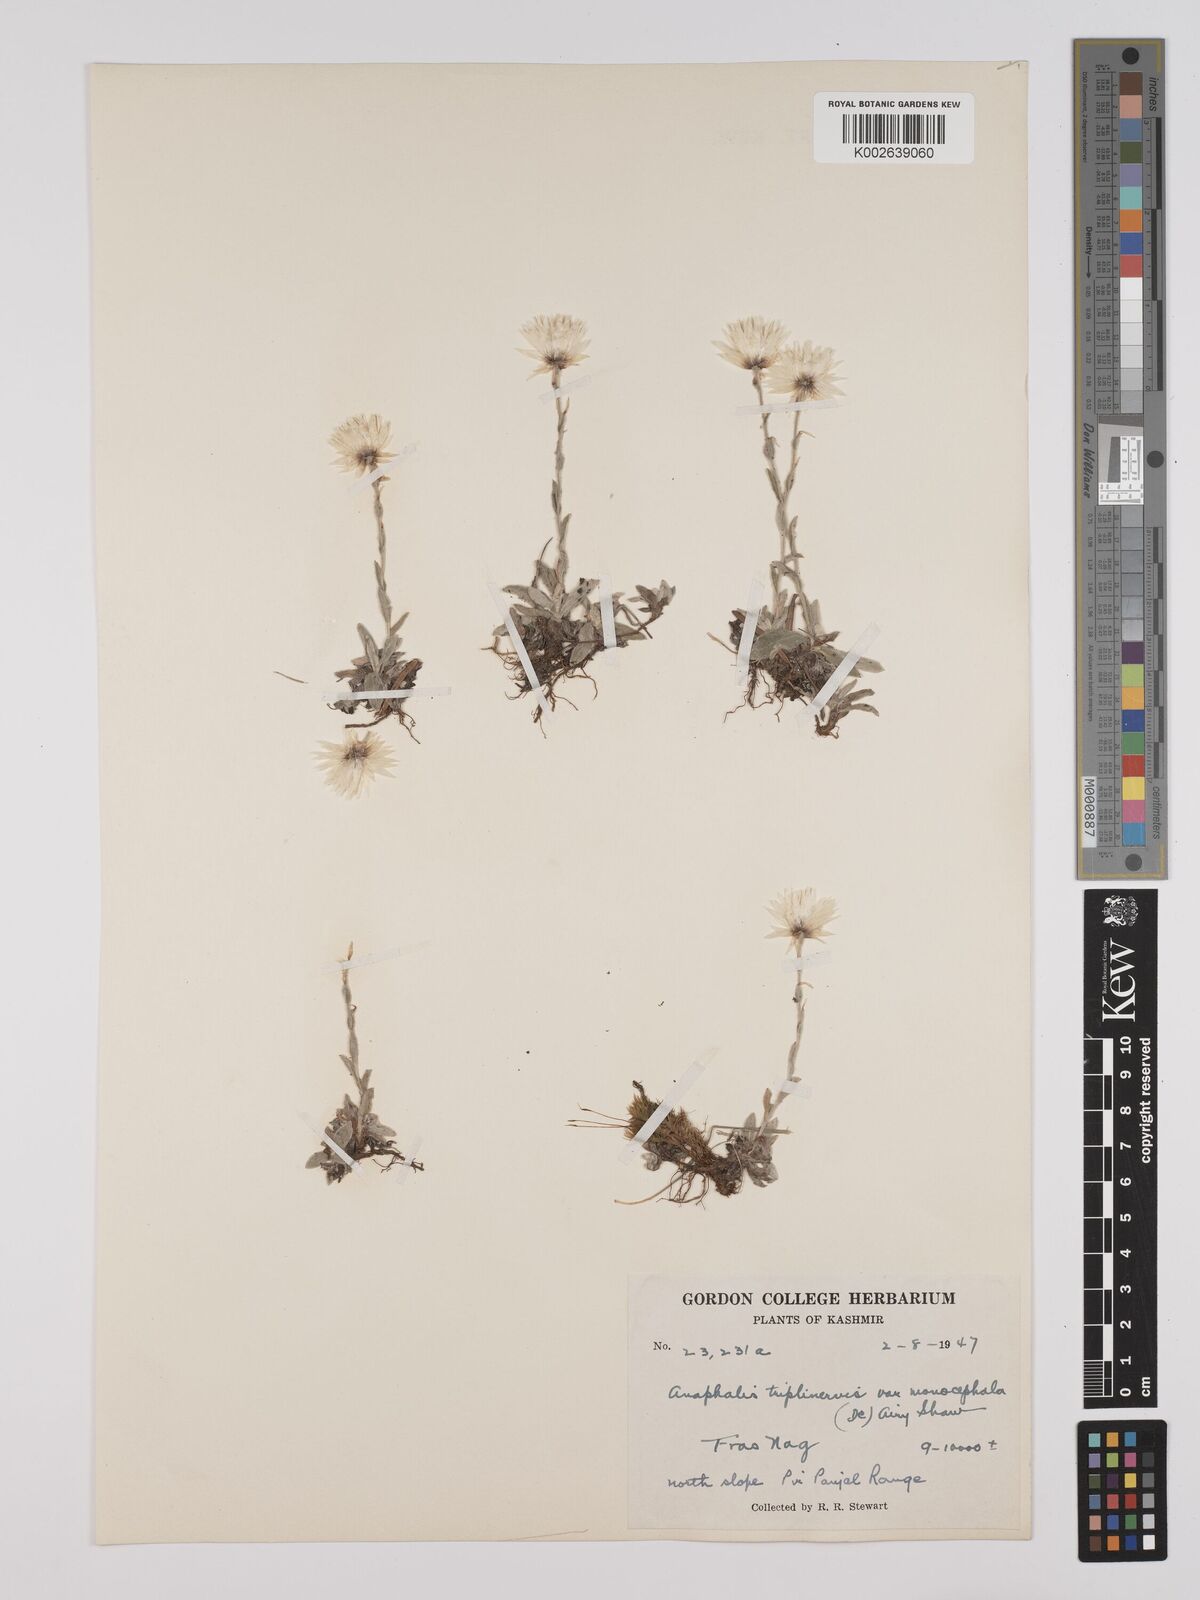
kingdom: Plantae
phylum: Tracheophyta
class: Magnoliopsida
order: Asterales
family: Asteraceae
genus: Anaphalis
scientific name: Anaphalis nepalensis
